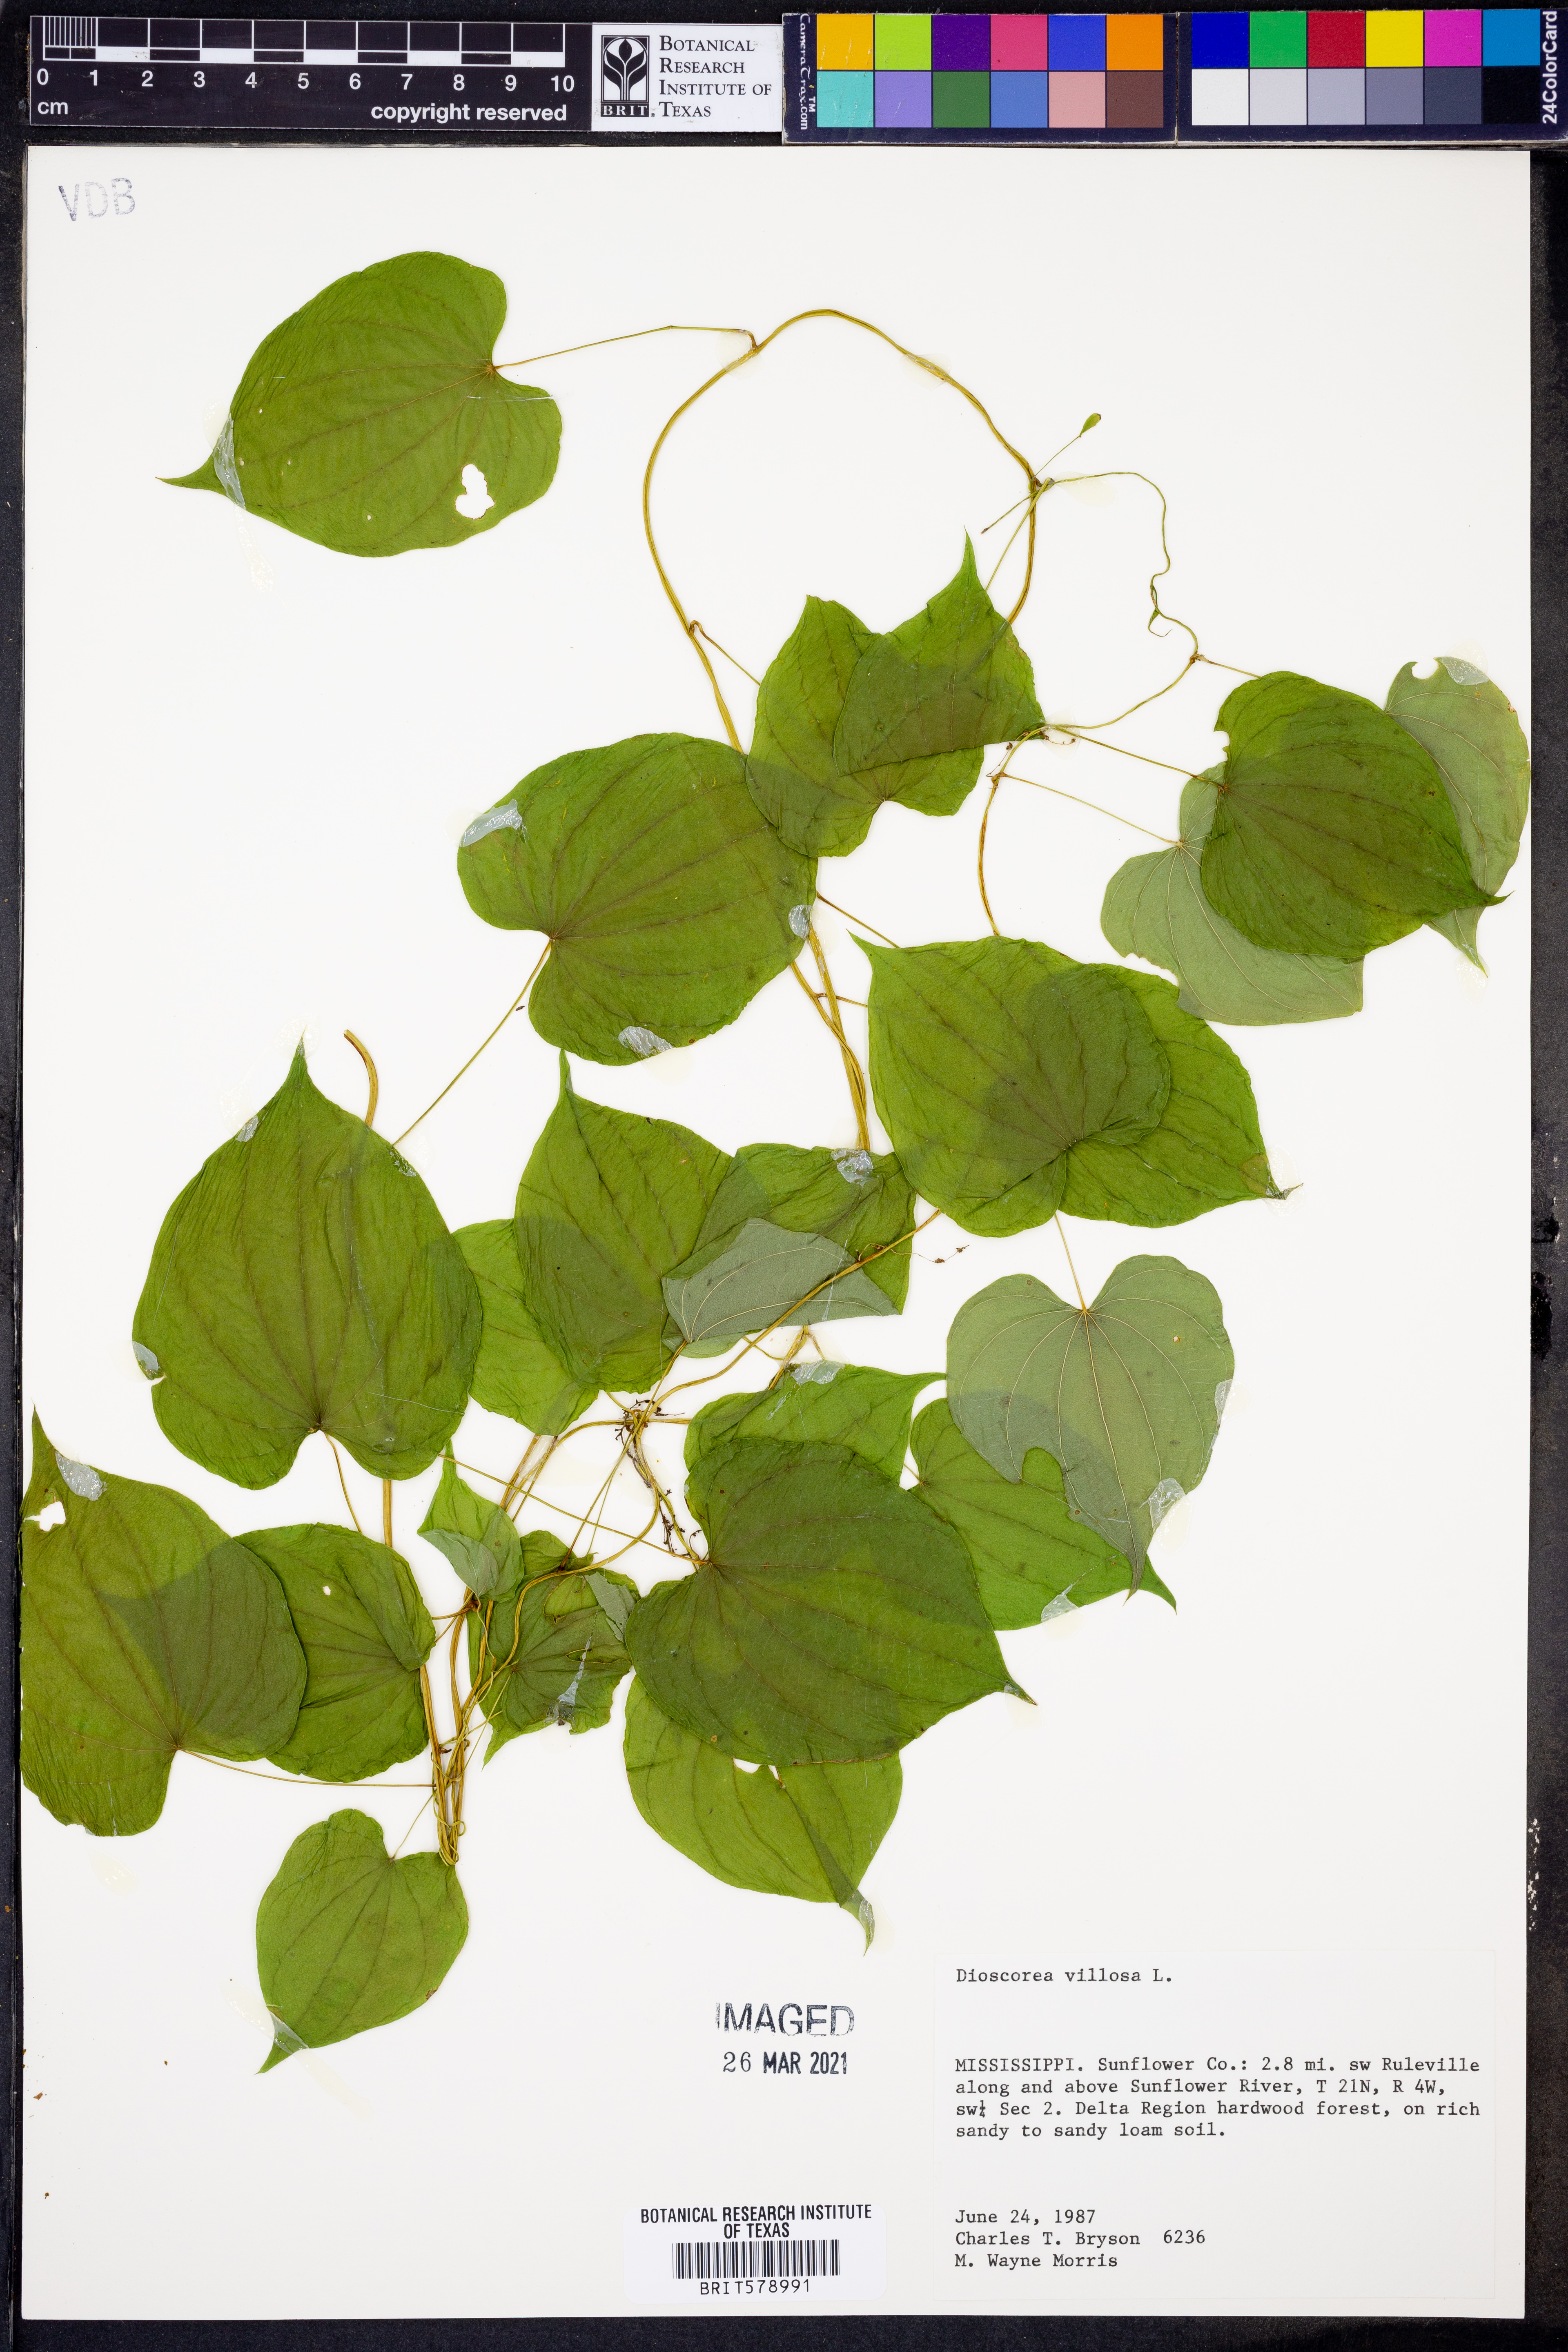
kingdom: Plantae
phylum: Tracheophyta
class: Liliopsida
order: Dioscoreales
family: Dioscoreaceae
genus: Dioscorea
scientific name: Dioscorea villosa
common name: Wild yam
